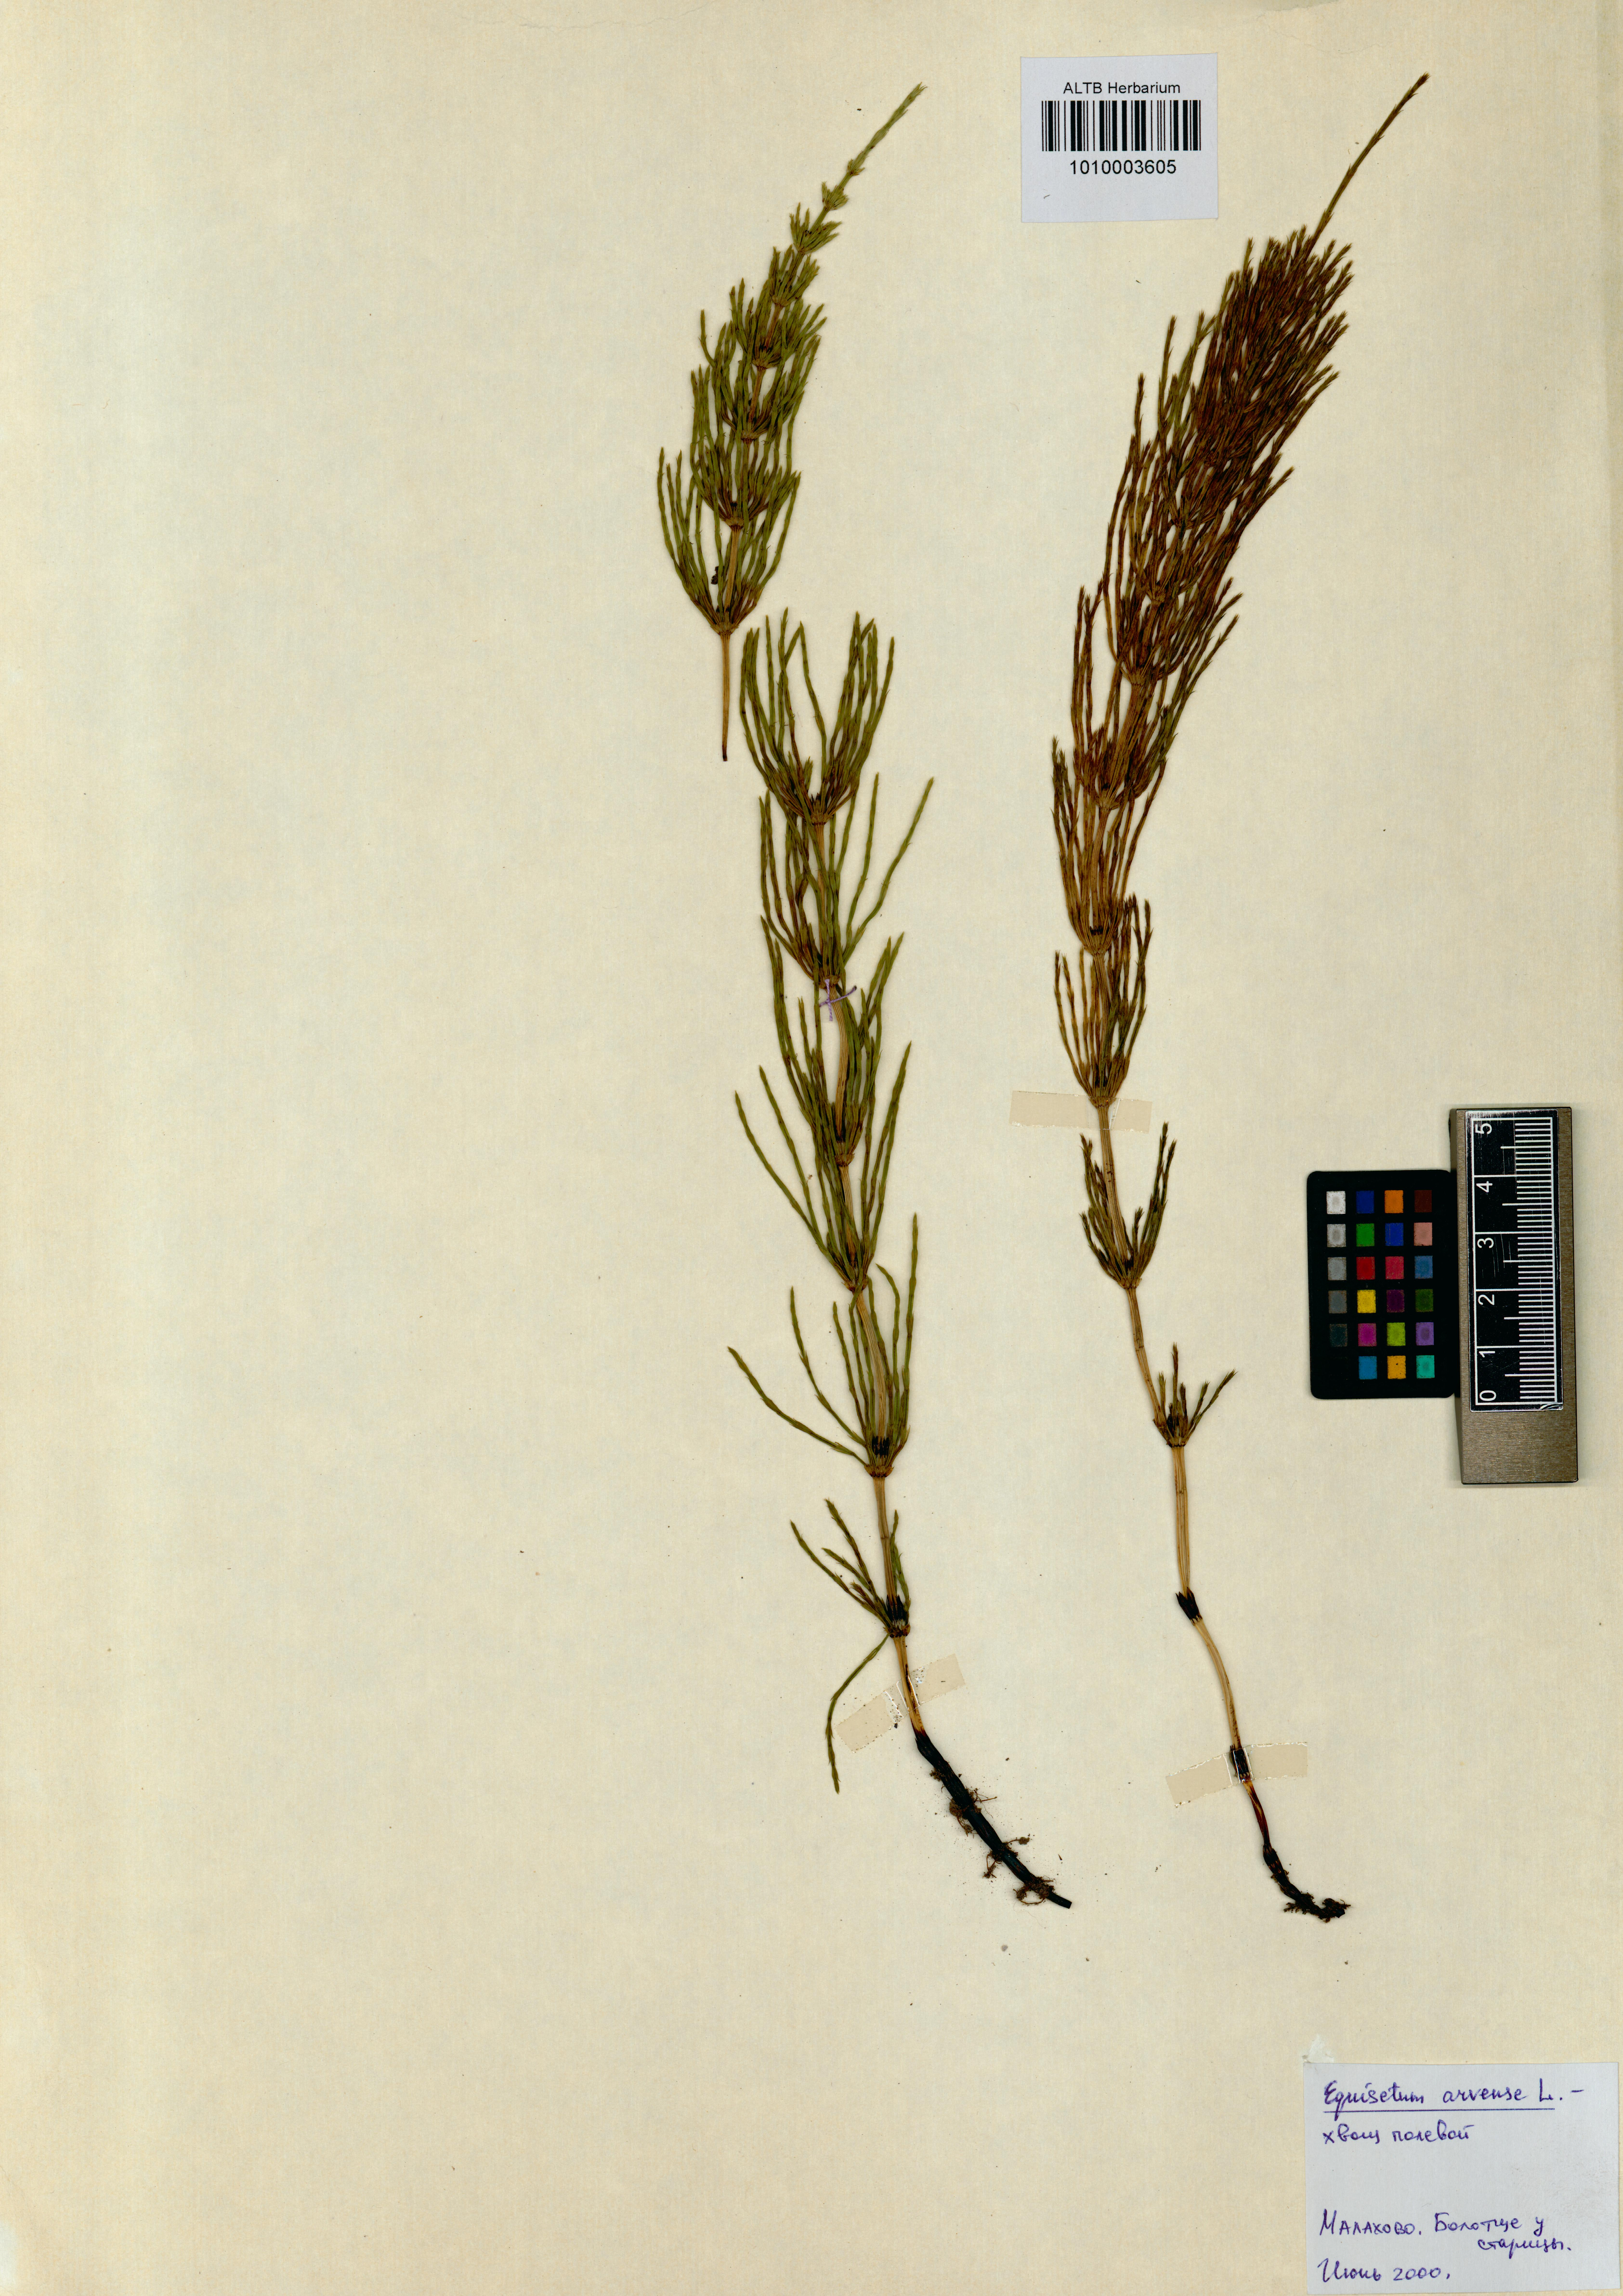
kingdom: Plantae
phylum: Tracheophyta
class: Polypodiopsida
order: Equisetales
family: Equisetaceae
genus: Equisetum
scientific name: Equisetum arvense
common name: Field horsetail
